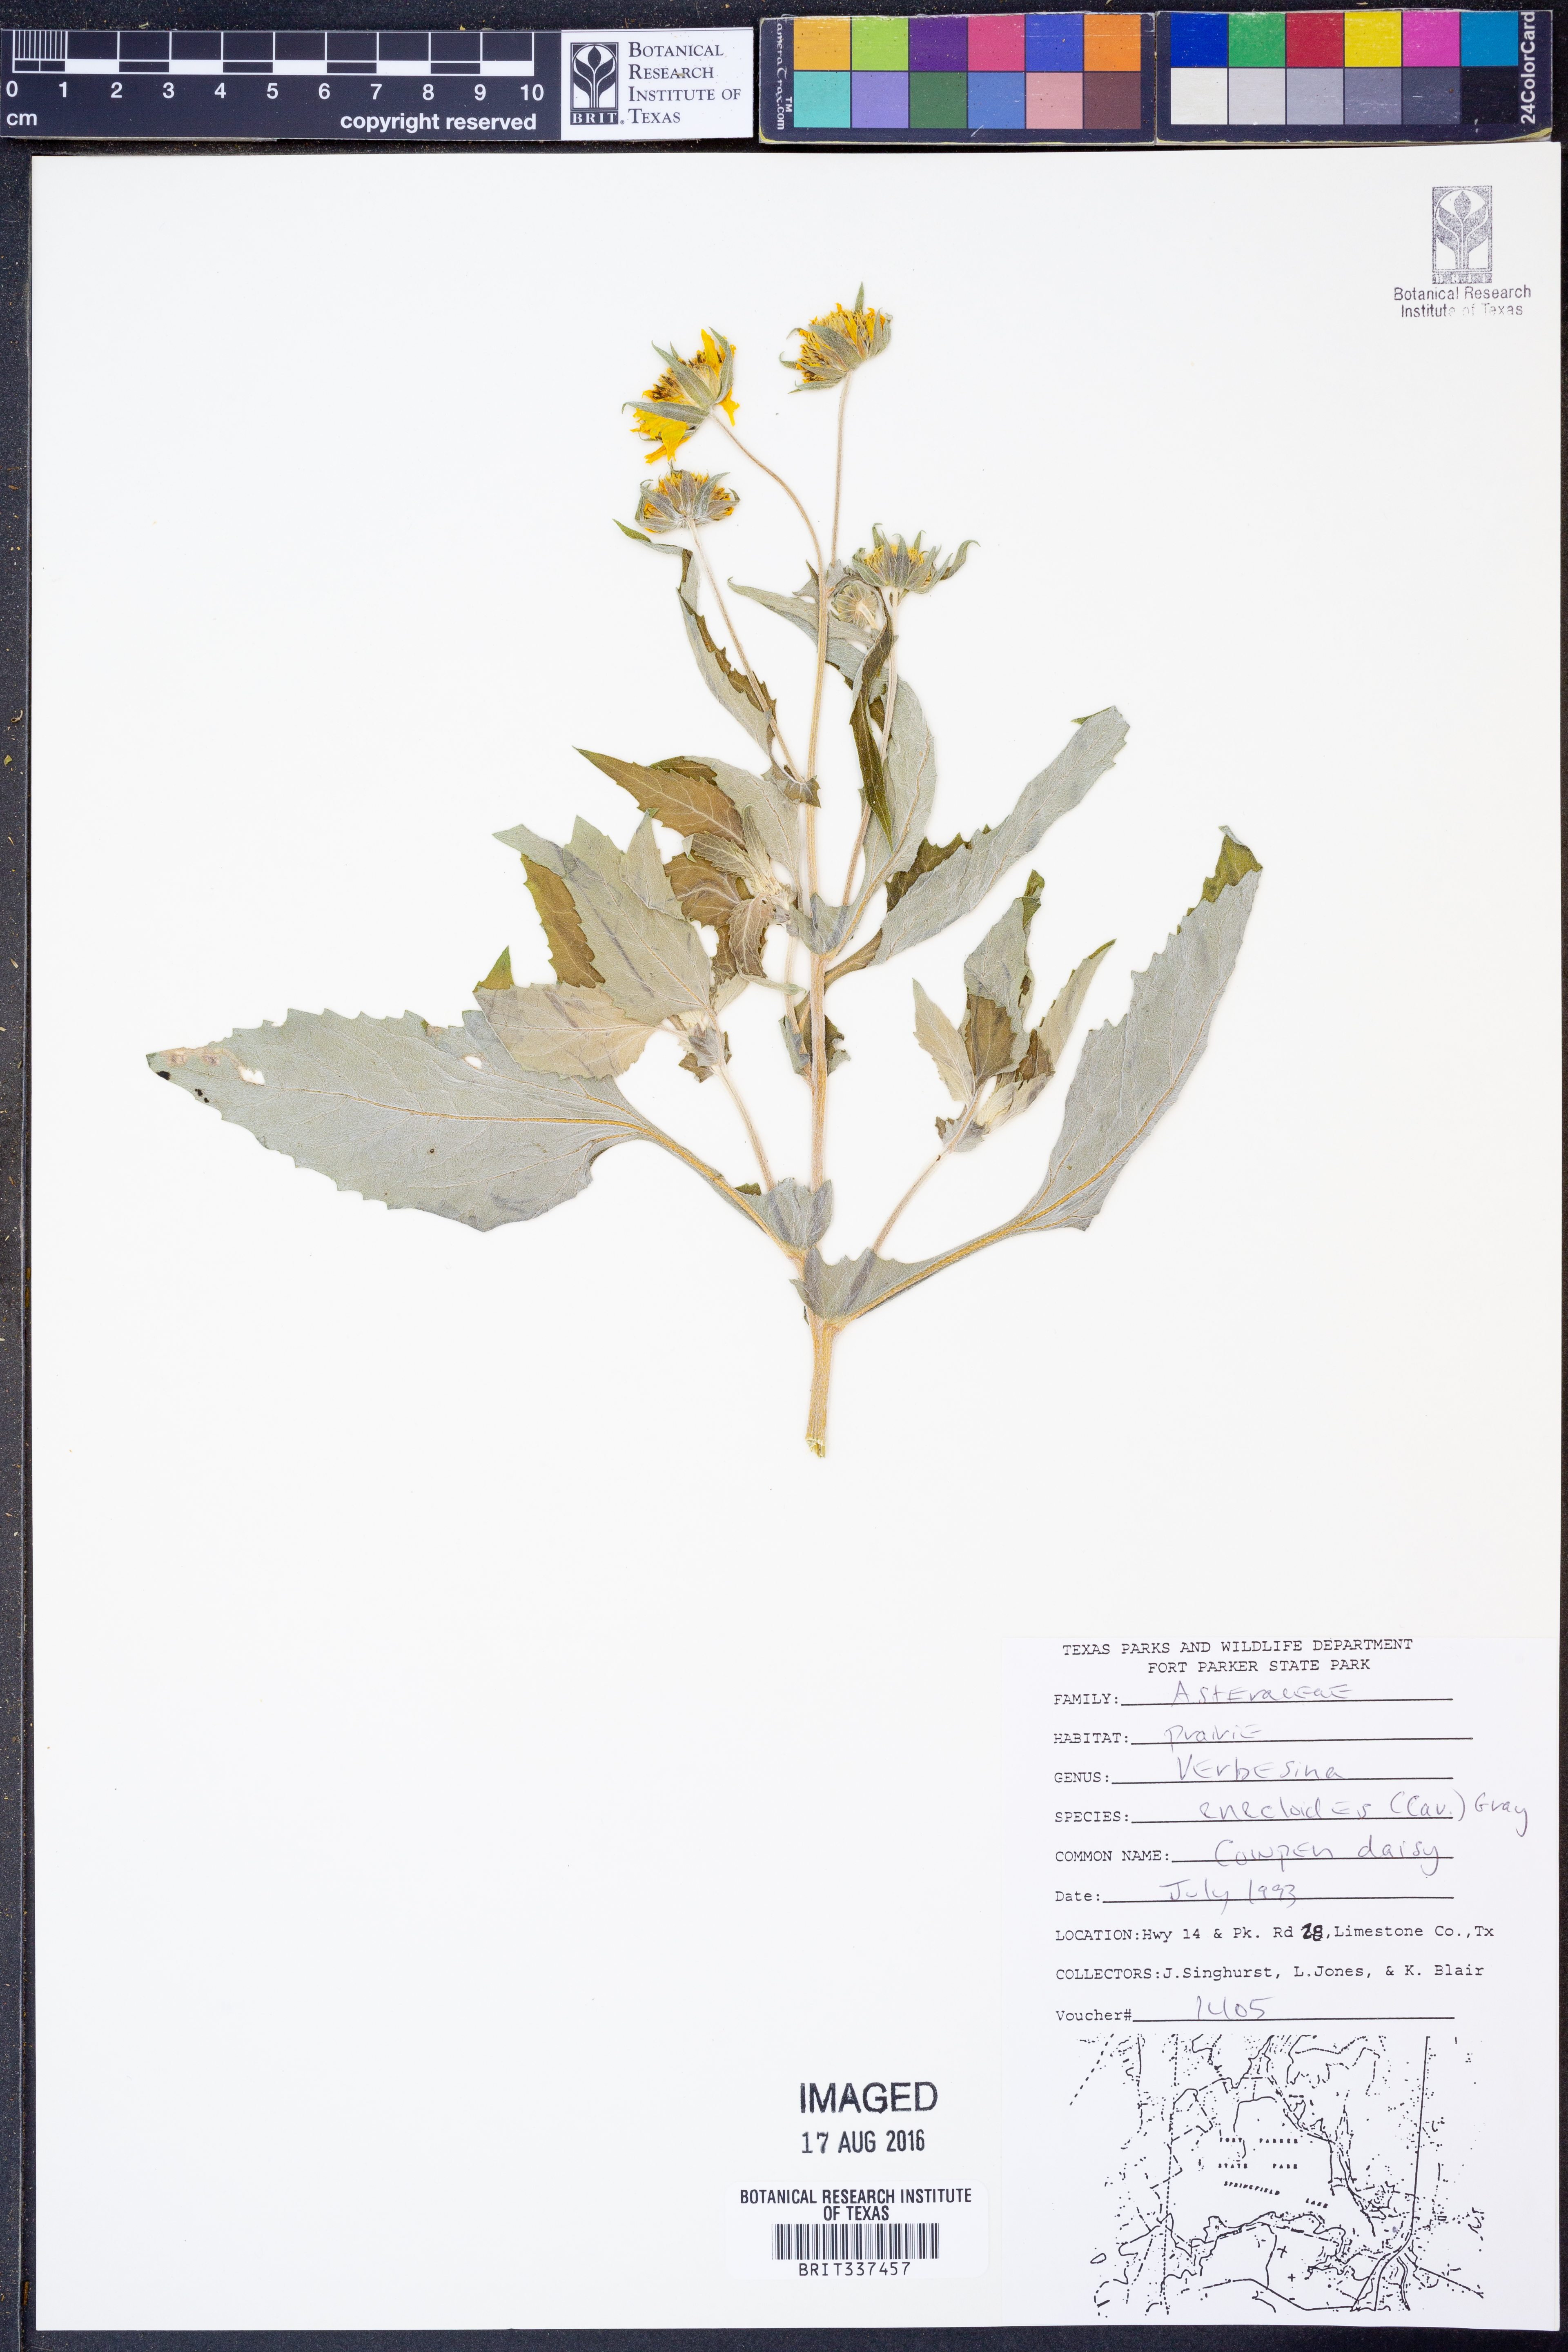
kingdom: Plantae
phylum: Tracheophyta
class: Magnoliopsida
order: Asterales
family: Asteraceae
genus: Verbesina
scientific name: Verbesina encelioides
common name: Golden crownbeard
